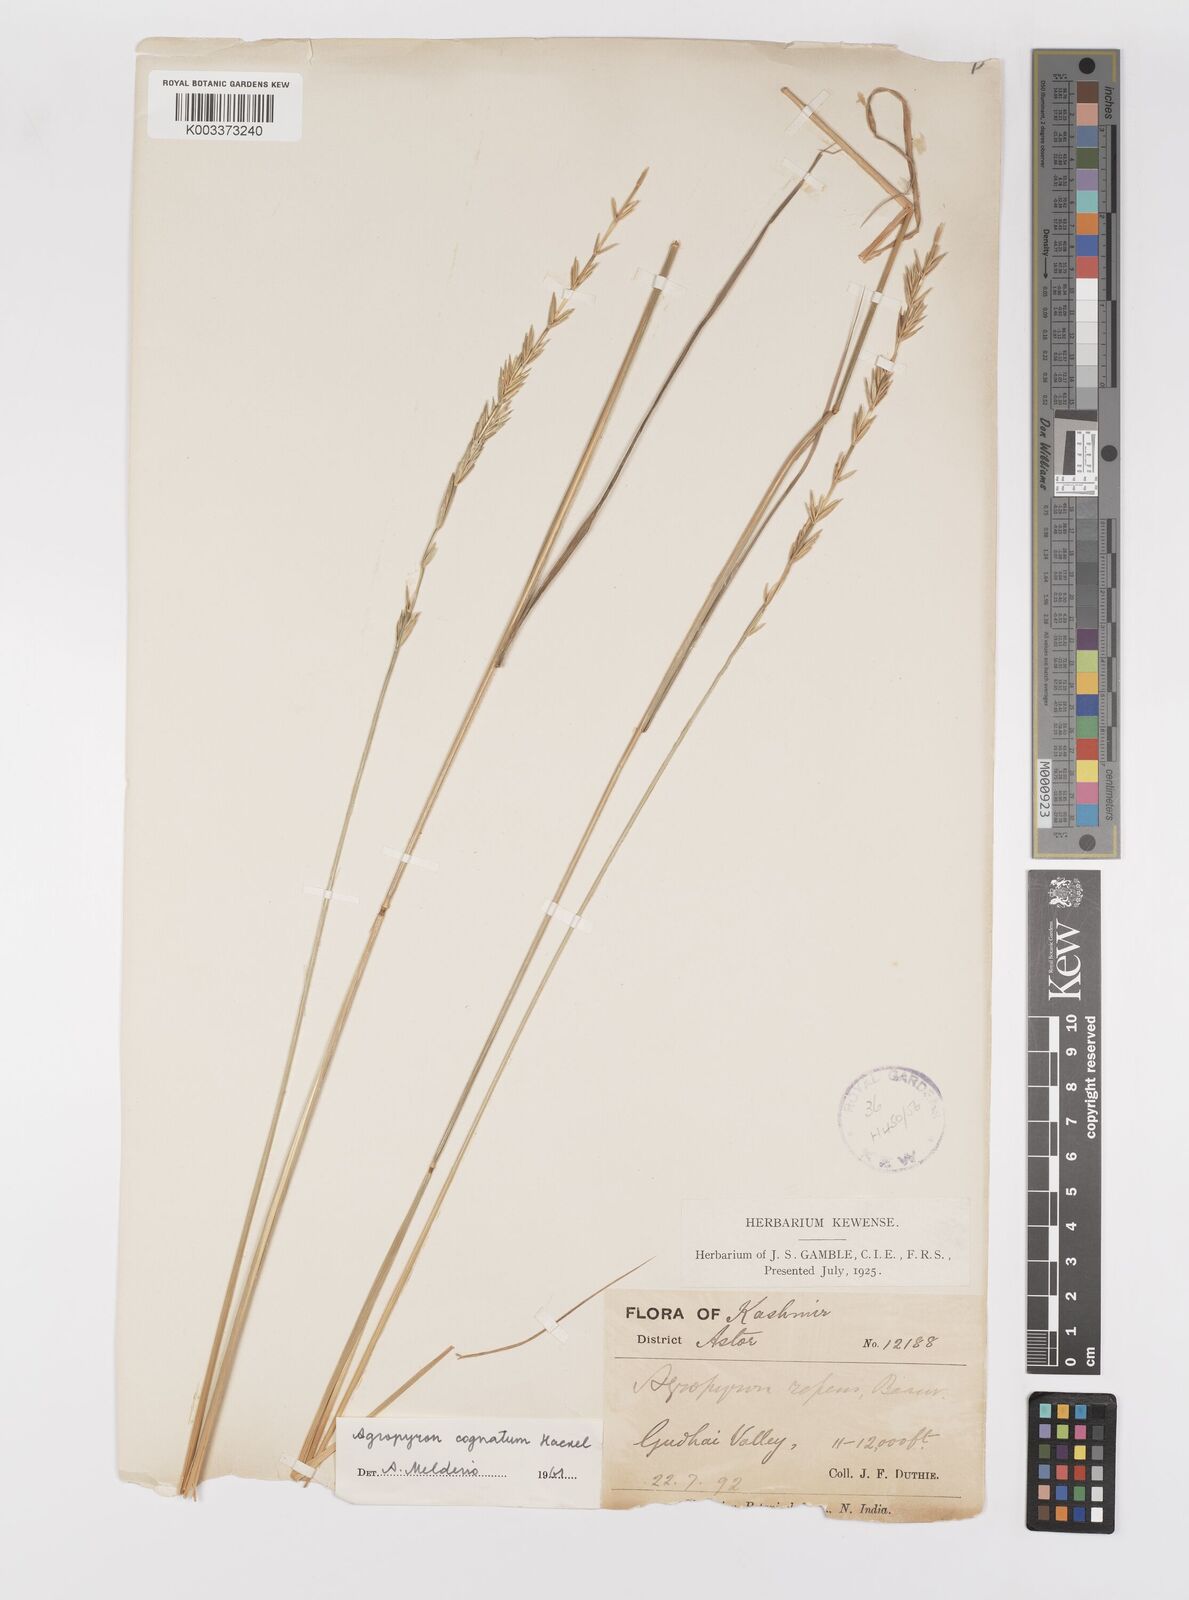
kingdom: Plantae
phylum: Tracheophyta
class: Liliopsida
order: Poales
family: Poaceae
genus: Pseudoroegneria
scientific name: Pseudoroegneria cognata
